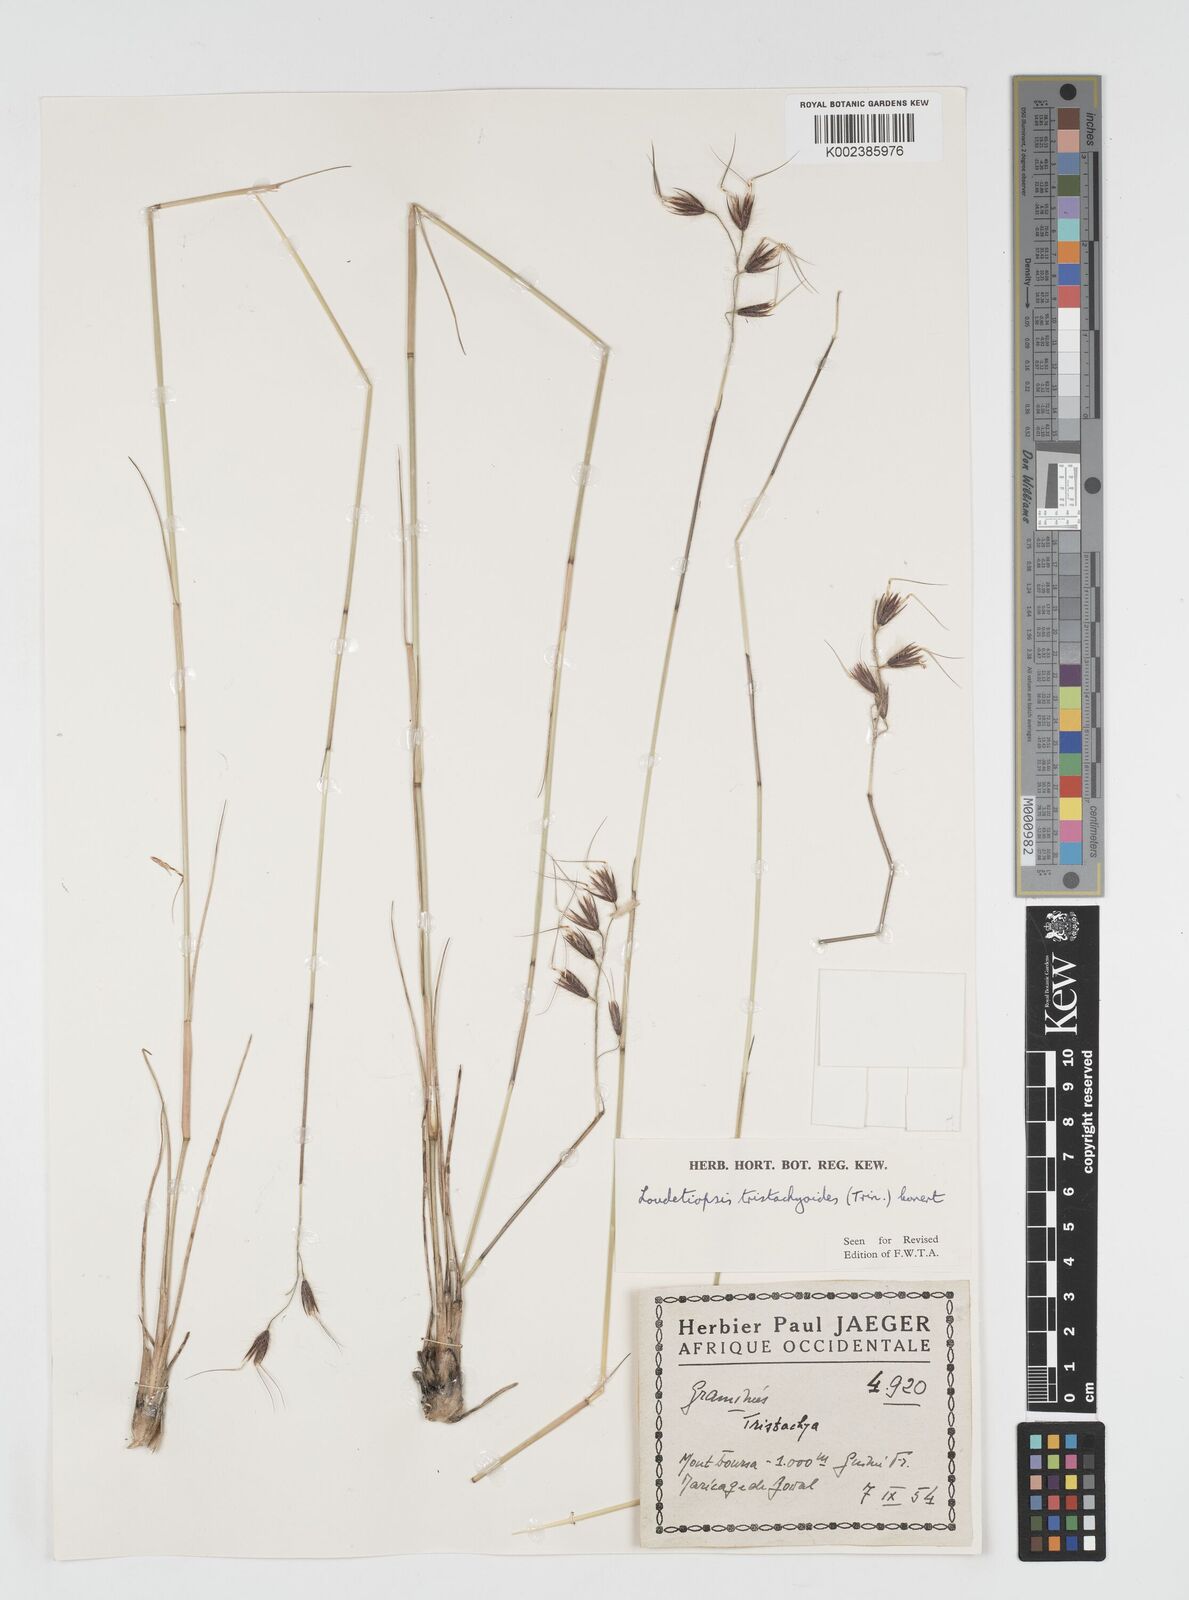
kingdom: Plantae
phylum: Tracheophyta
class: Liliopsida
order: Poales
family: Poaceae
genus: Dilophotriche
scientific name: Dilophotriche tristachyoides
